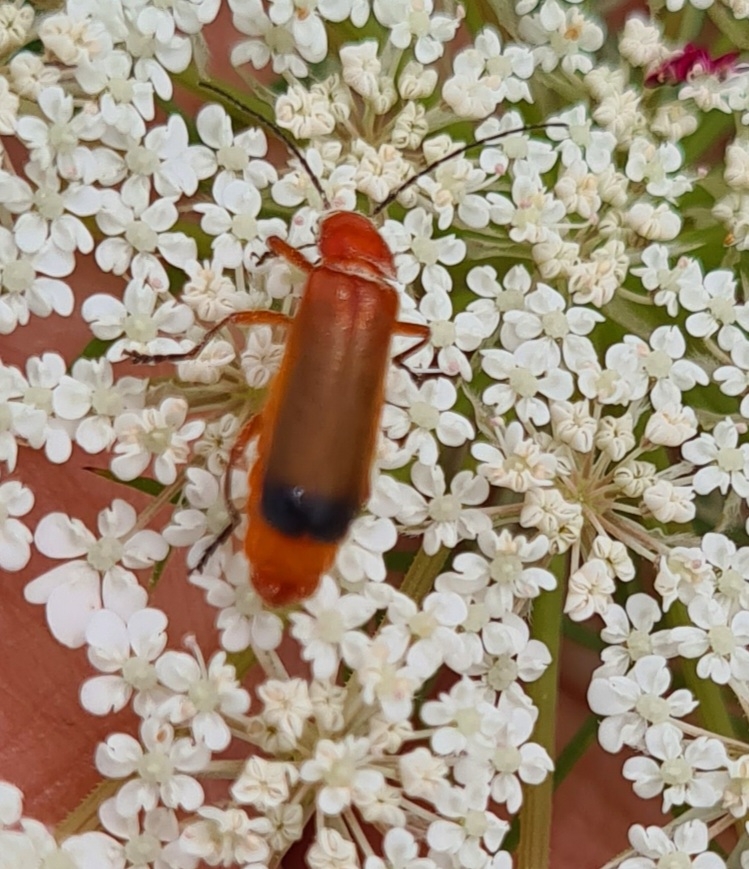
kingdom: Animalia
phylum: Arthropoda
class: Insecta
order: Coleoptera
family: Cantharidae
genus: Rhagonycha
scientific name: Rhagonycha fulva
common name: Præstebille
